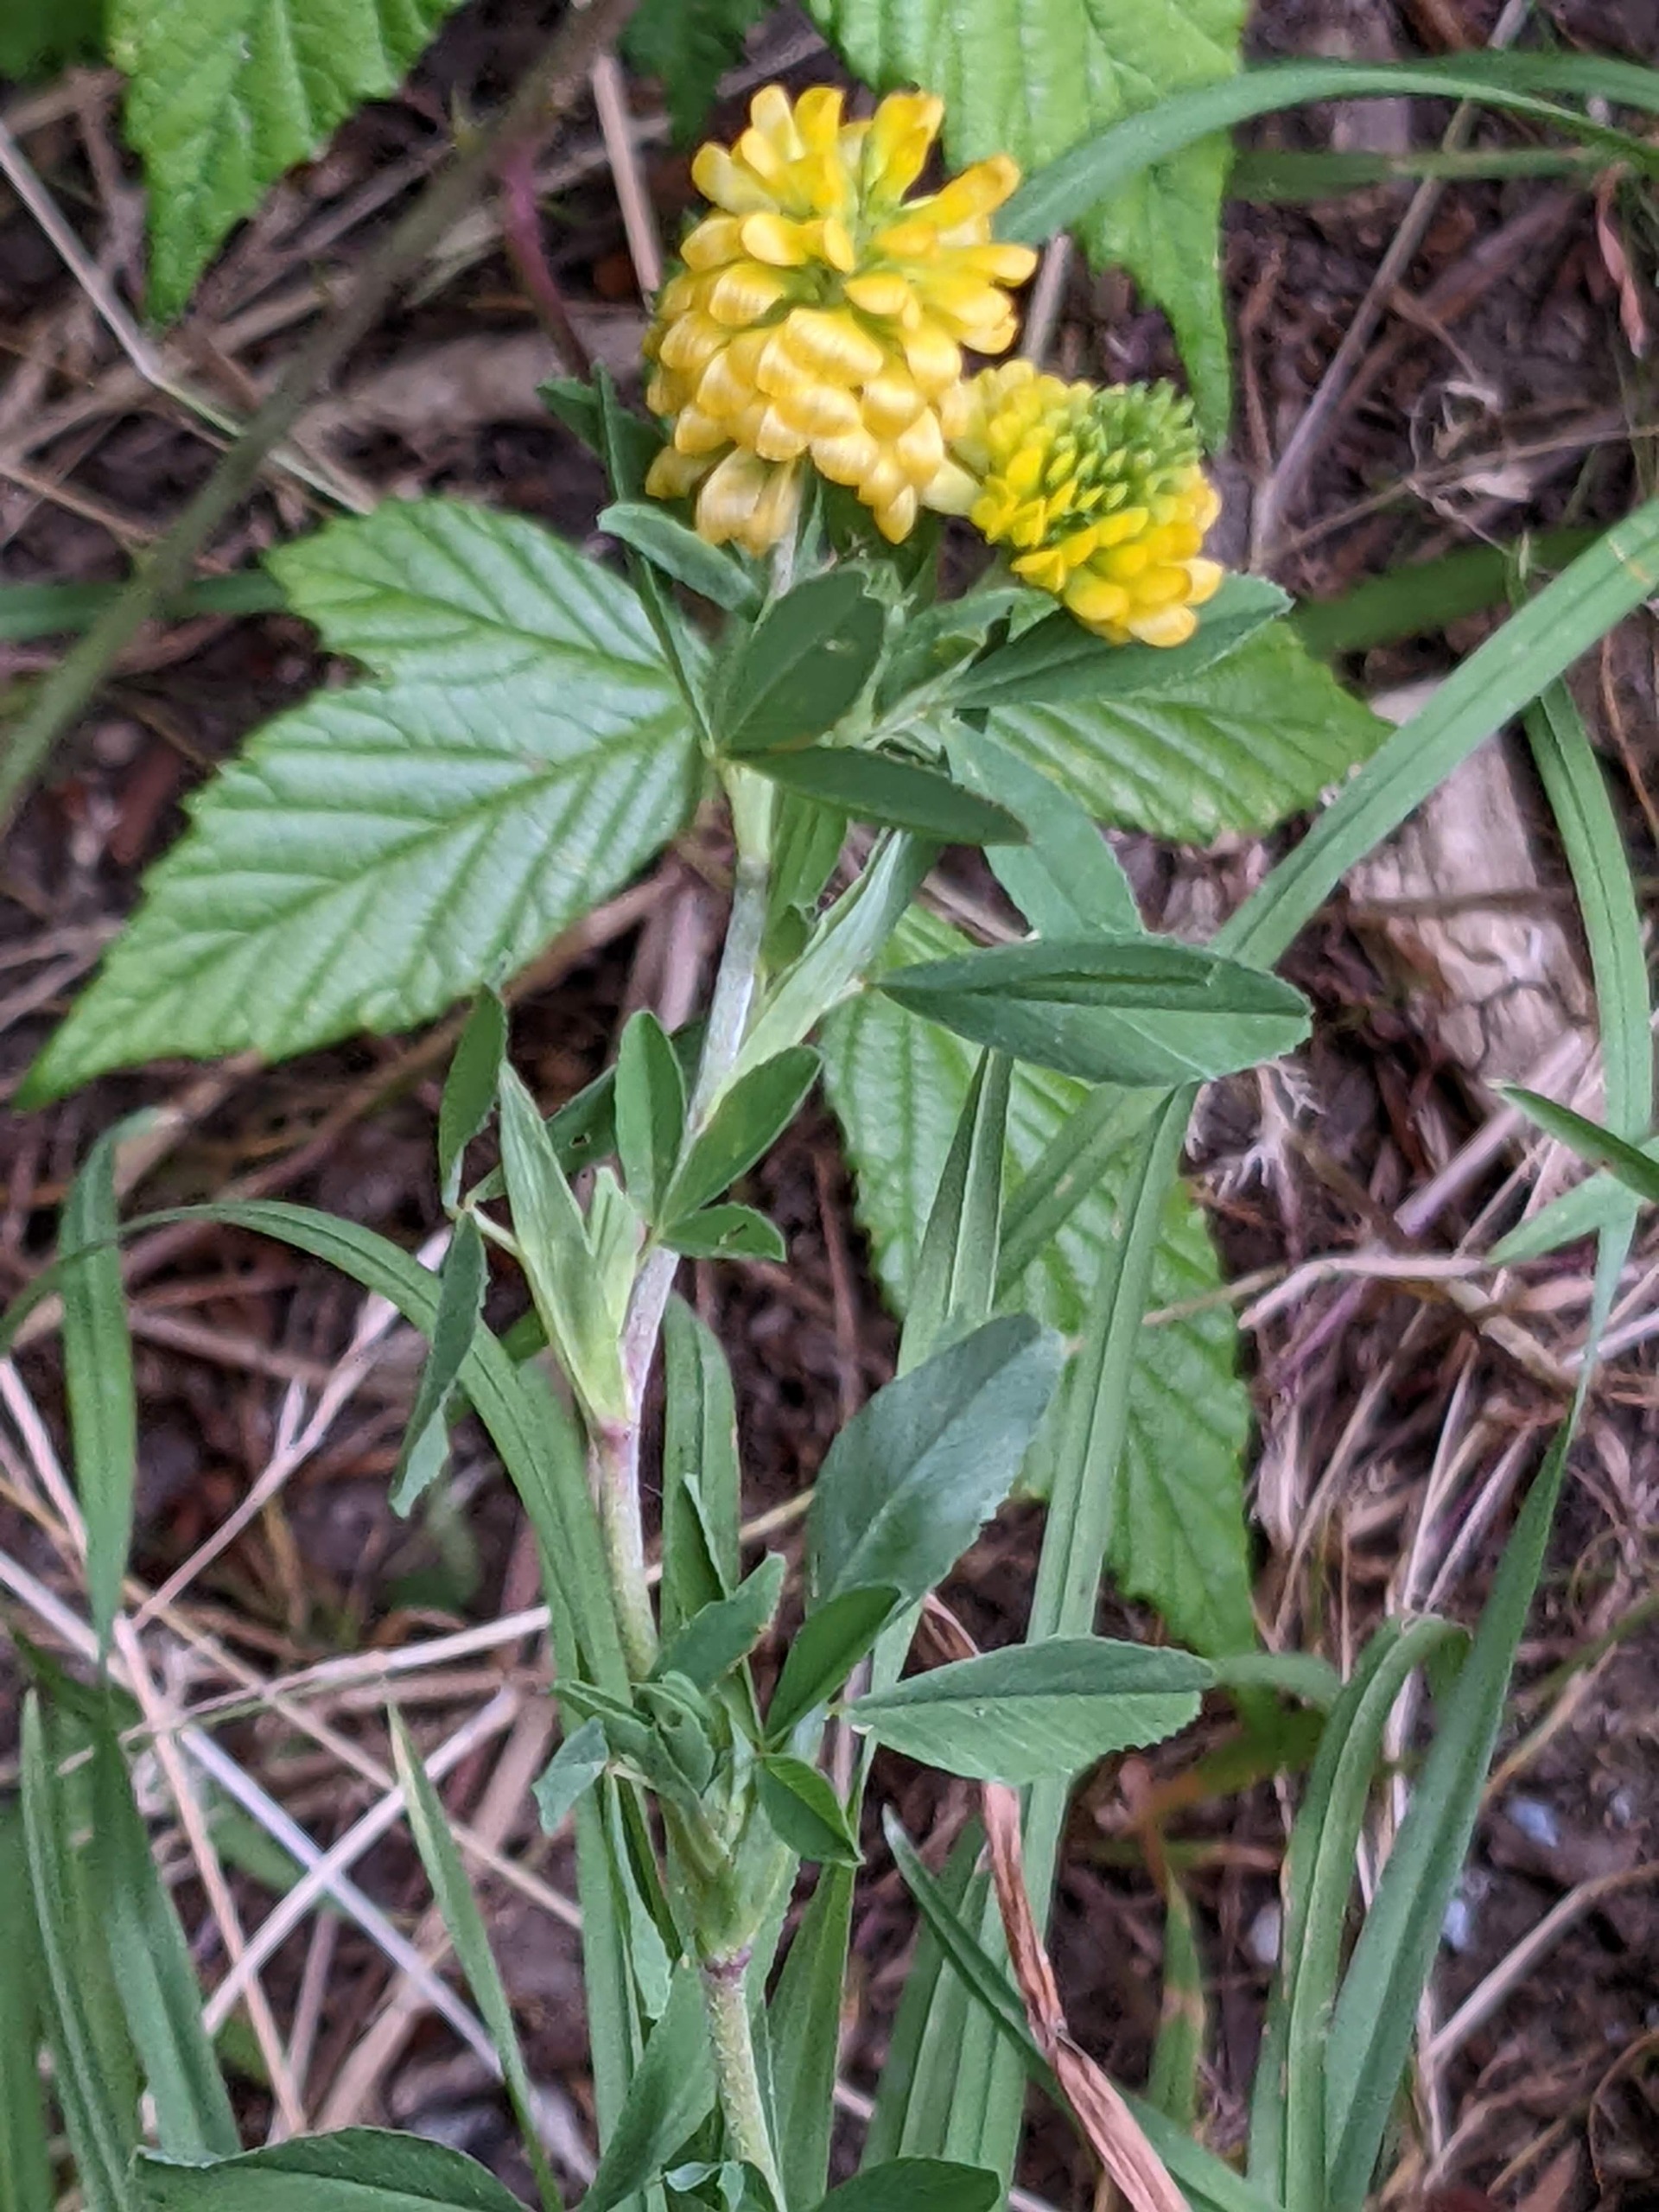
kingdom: Plantae
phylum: Tracheophyta
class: Magnoliopsida
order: Fabales
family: Fabaceae
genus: Trifolium
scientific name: Trifolium aureum
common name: Humle-kløver
